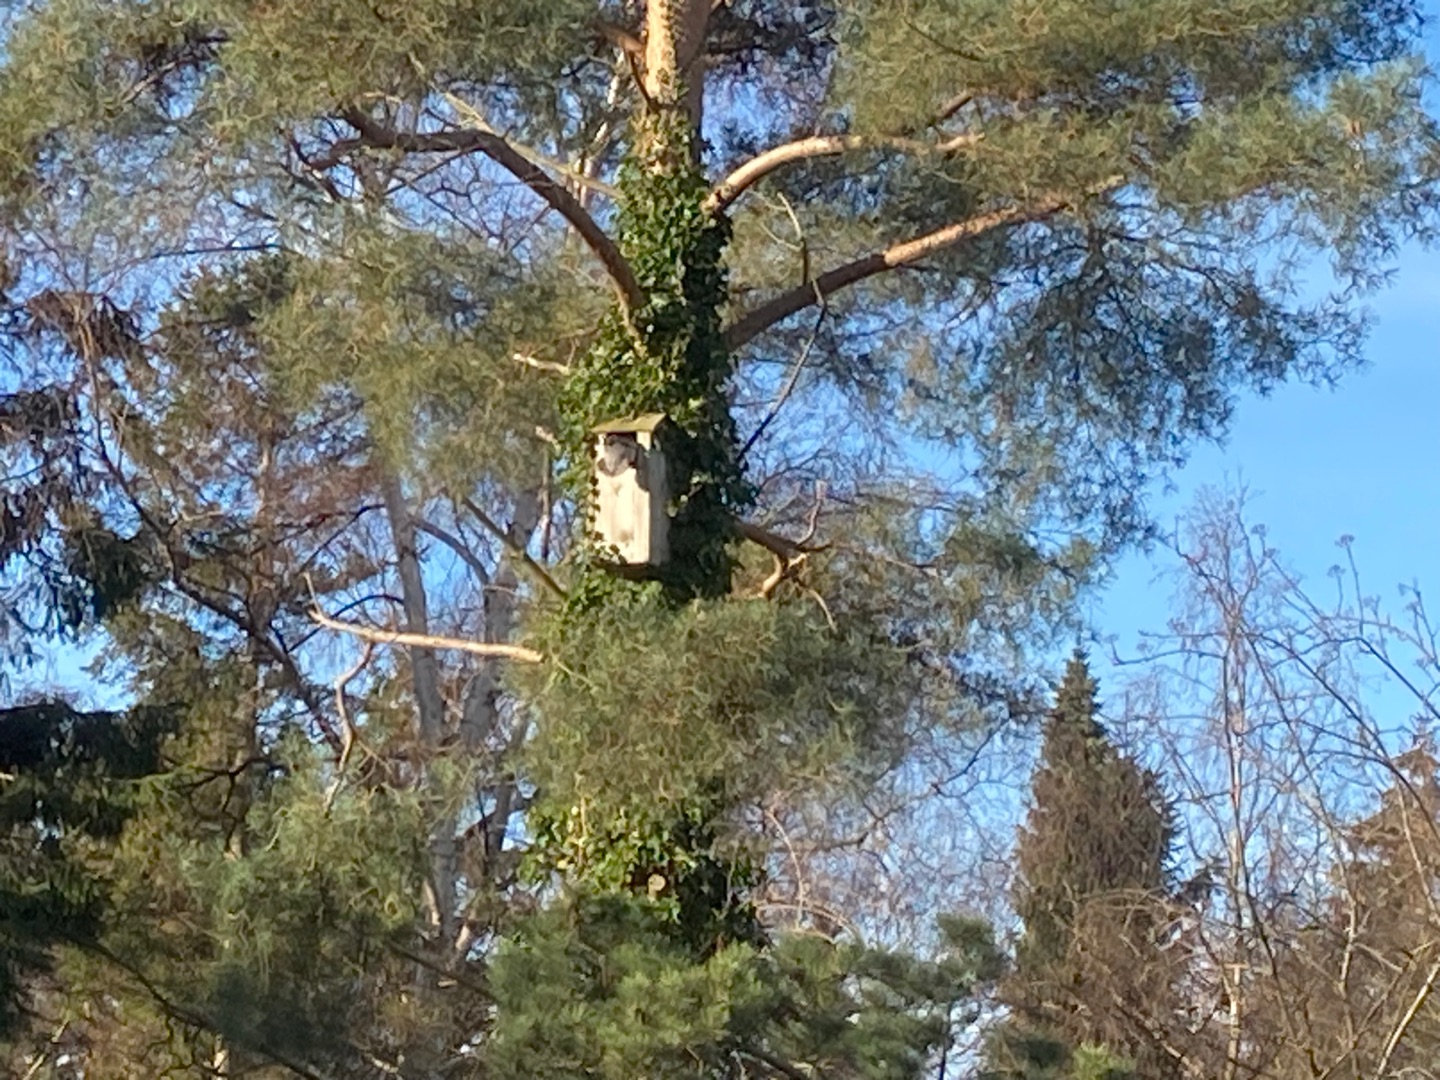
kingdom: Animalia
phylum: Chordata
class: Aves
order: Anseriformes
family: Anatidae
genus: Mergus
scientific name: Mergus merganser
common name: Stor skallesluger
